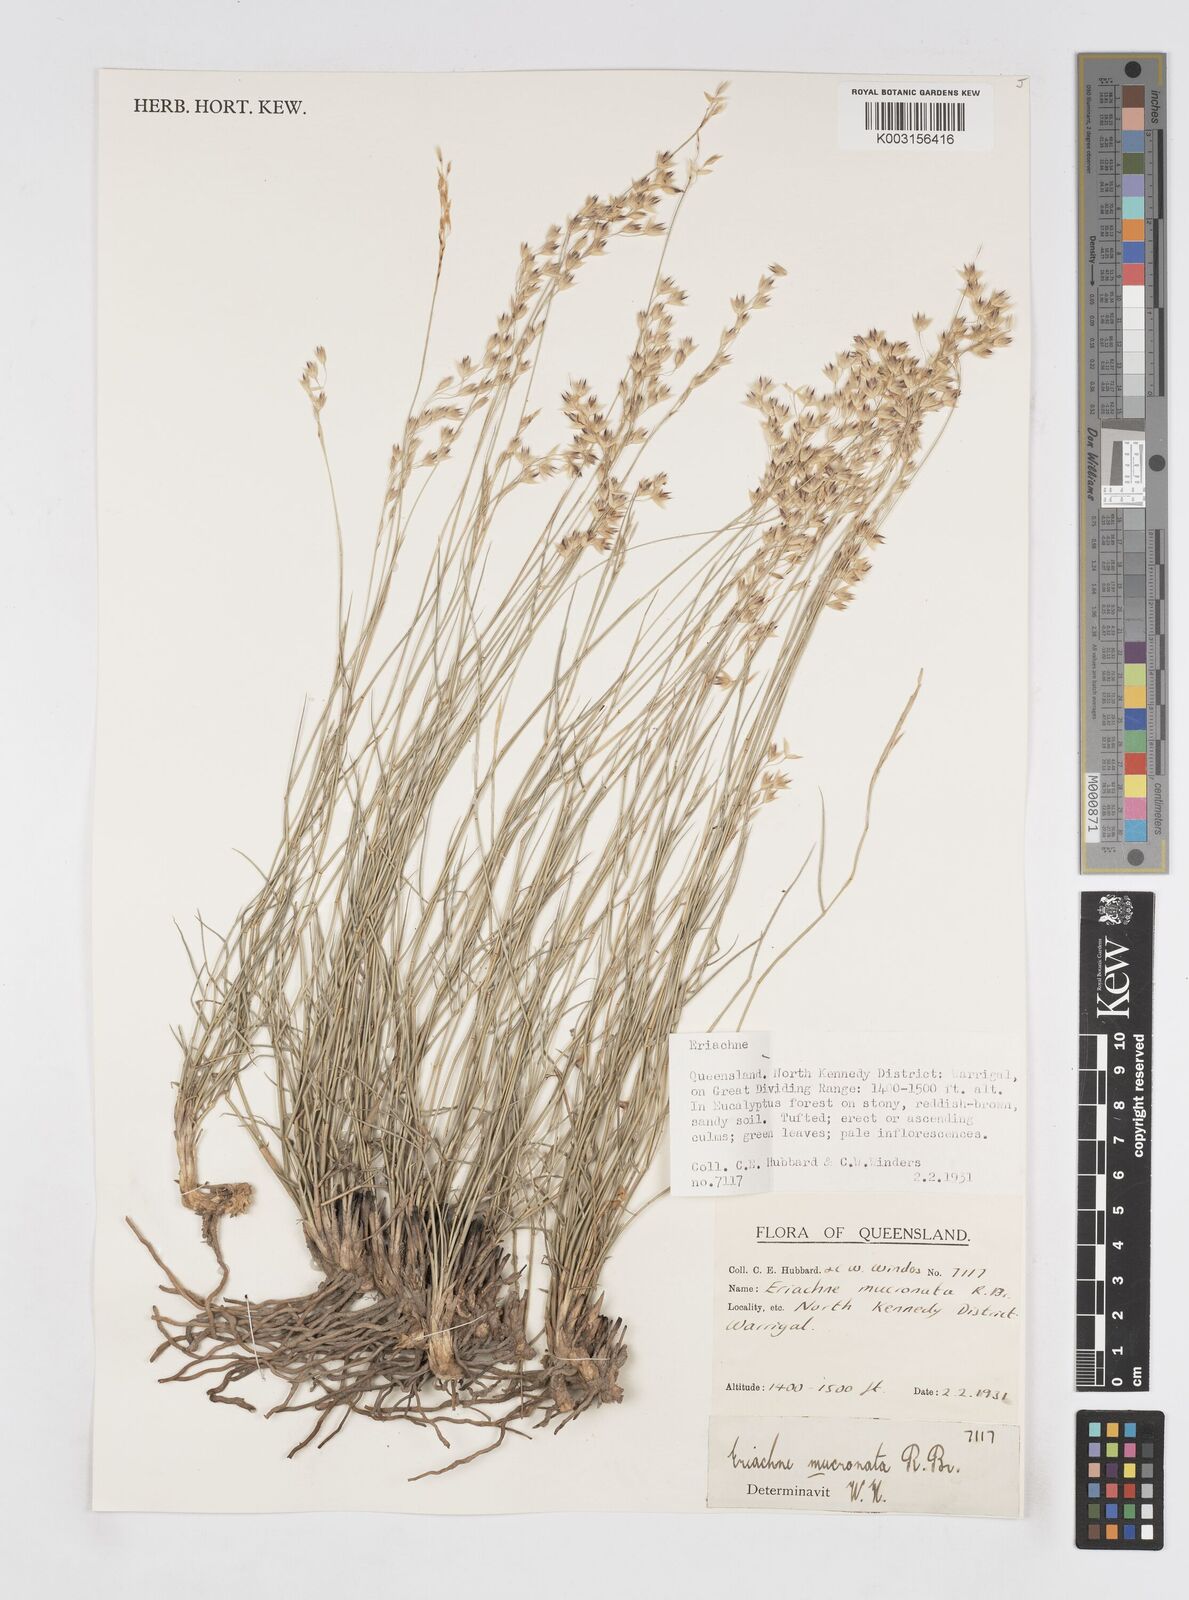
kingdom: Plantae
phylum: Tracheophyta
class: Liliopsida
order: Poales
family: Poaceae
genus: Eriachne
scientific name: Eriachne mucronata
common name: Mountain wanderrie grass
